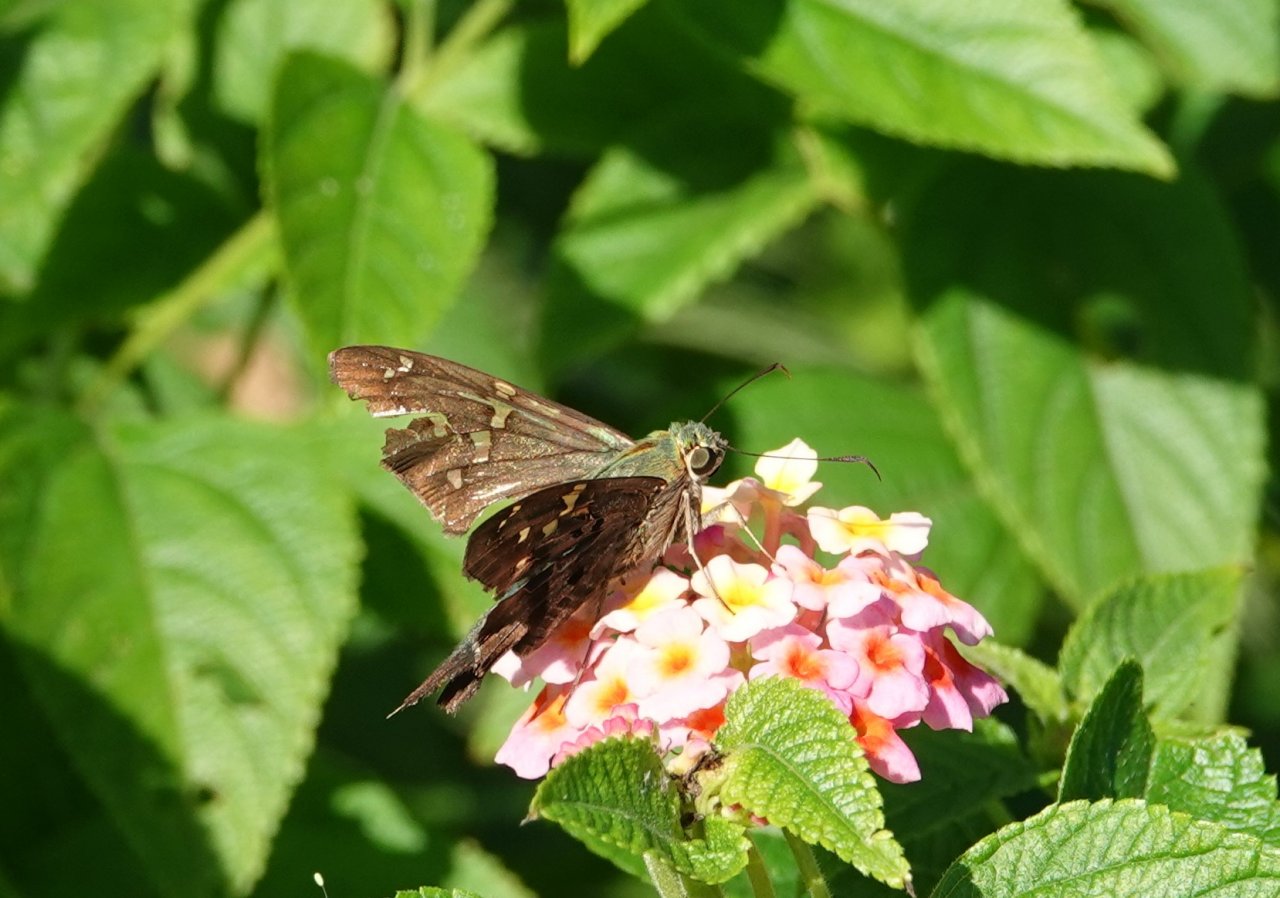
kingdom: Animalia
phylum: Arthropoda
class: Insecta
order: Lepidoptera
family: Hesperiidae
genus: Urbanus
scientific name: Urbanus proteus
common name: Long-tailed Skipper
